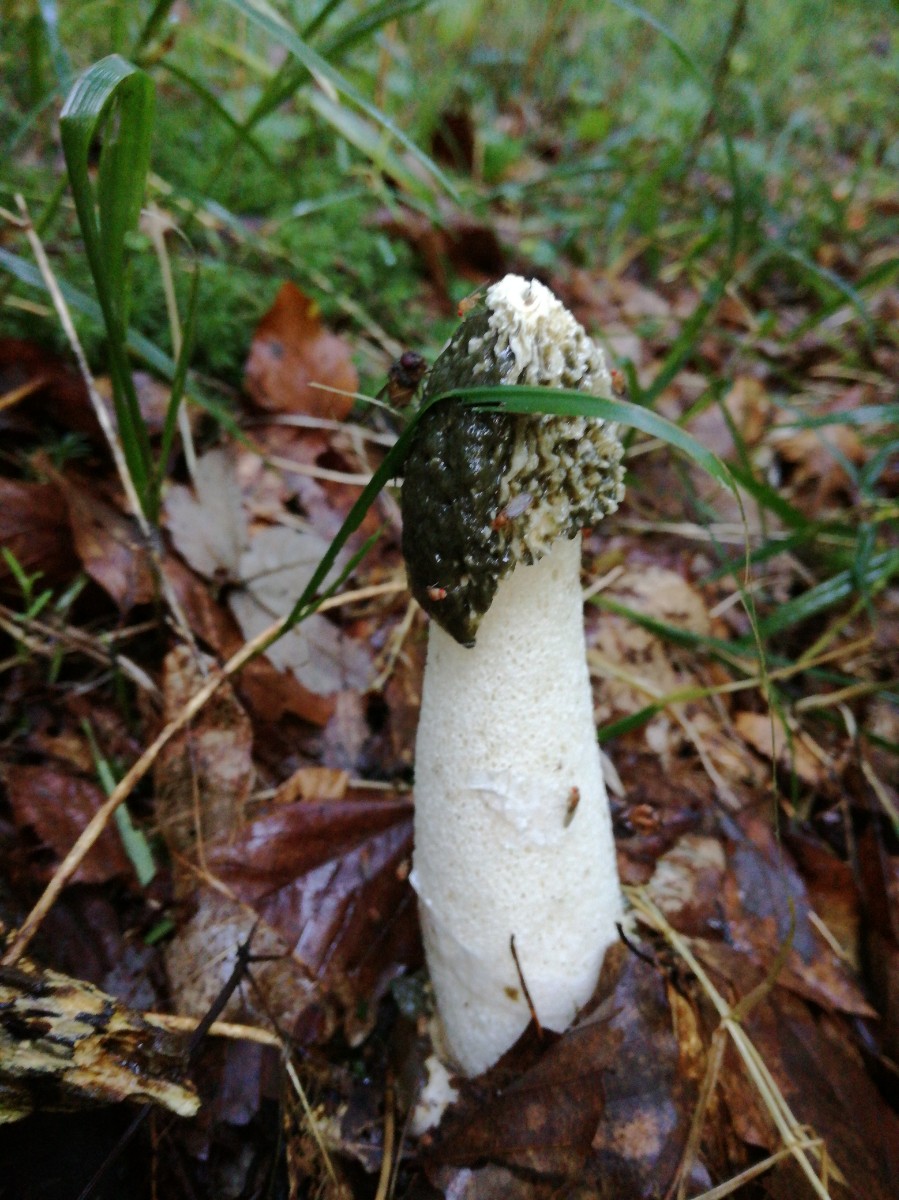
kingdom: Fungi
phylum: Basidiomycota
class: Agaricomycetes
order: Phallales
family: Phallaceae
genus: Phallus
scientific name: Phallus impudicus
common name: almindelig stinksvamp
